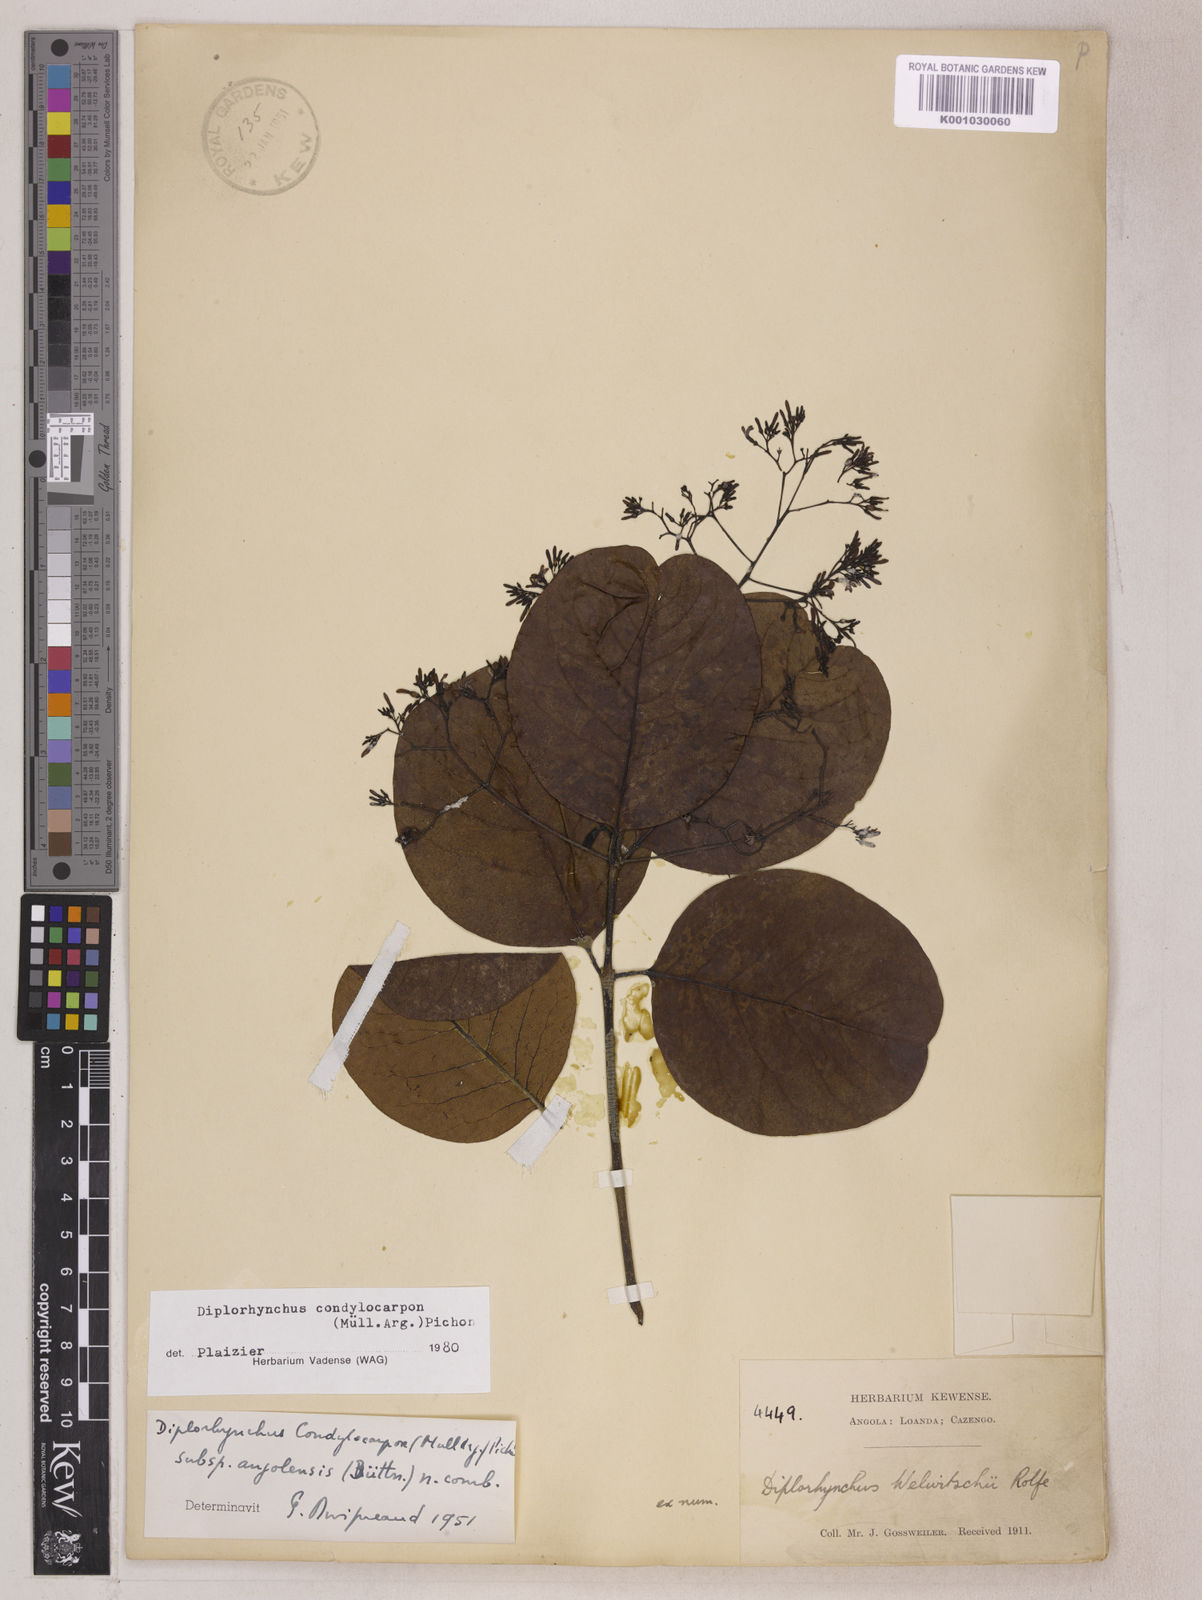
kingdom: Plantae
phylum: Tracheophyta
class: Magnoliopsida
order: Gentianales
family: Apocynaceae
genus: Diplorhynchus
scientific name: Diplorhynchus
